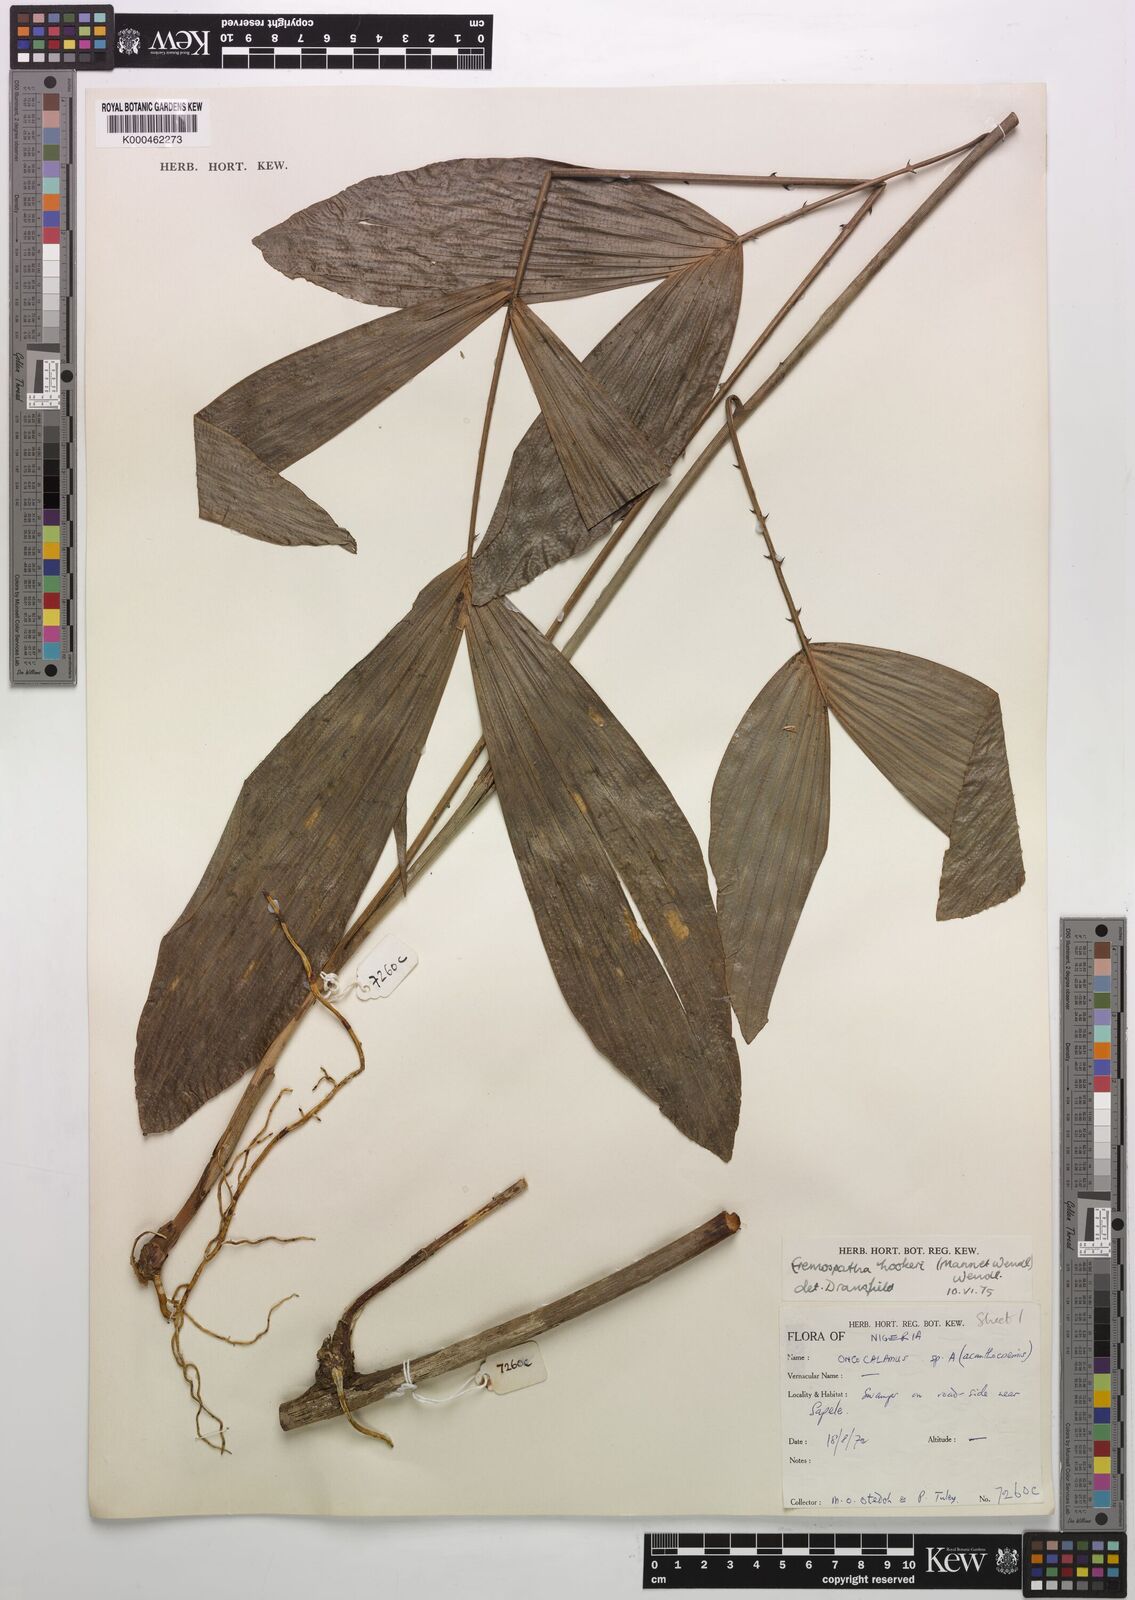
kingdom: Plantae
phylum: Tracheophyta
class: Liliopsida
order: Arecales
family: Arecaceae
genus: Eremospatha
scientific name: Eremospatha hookeri
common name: Rattan
